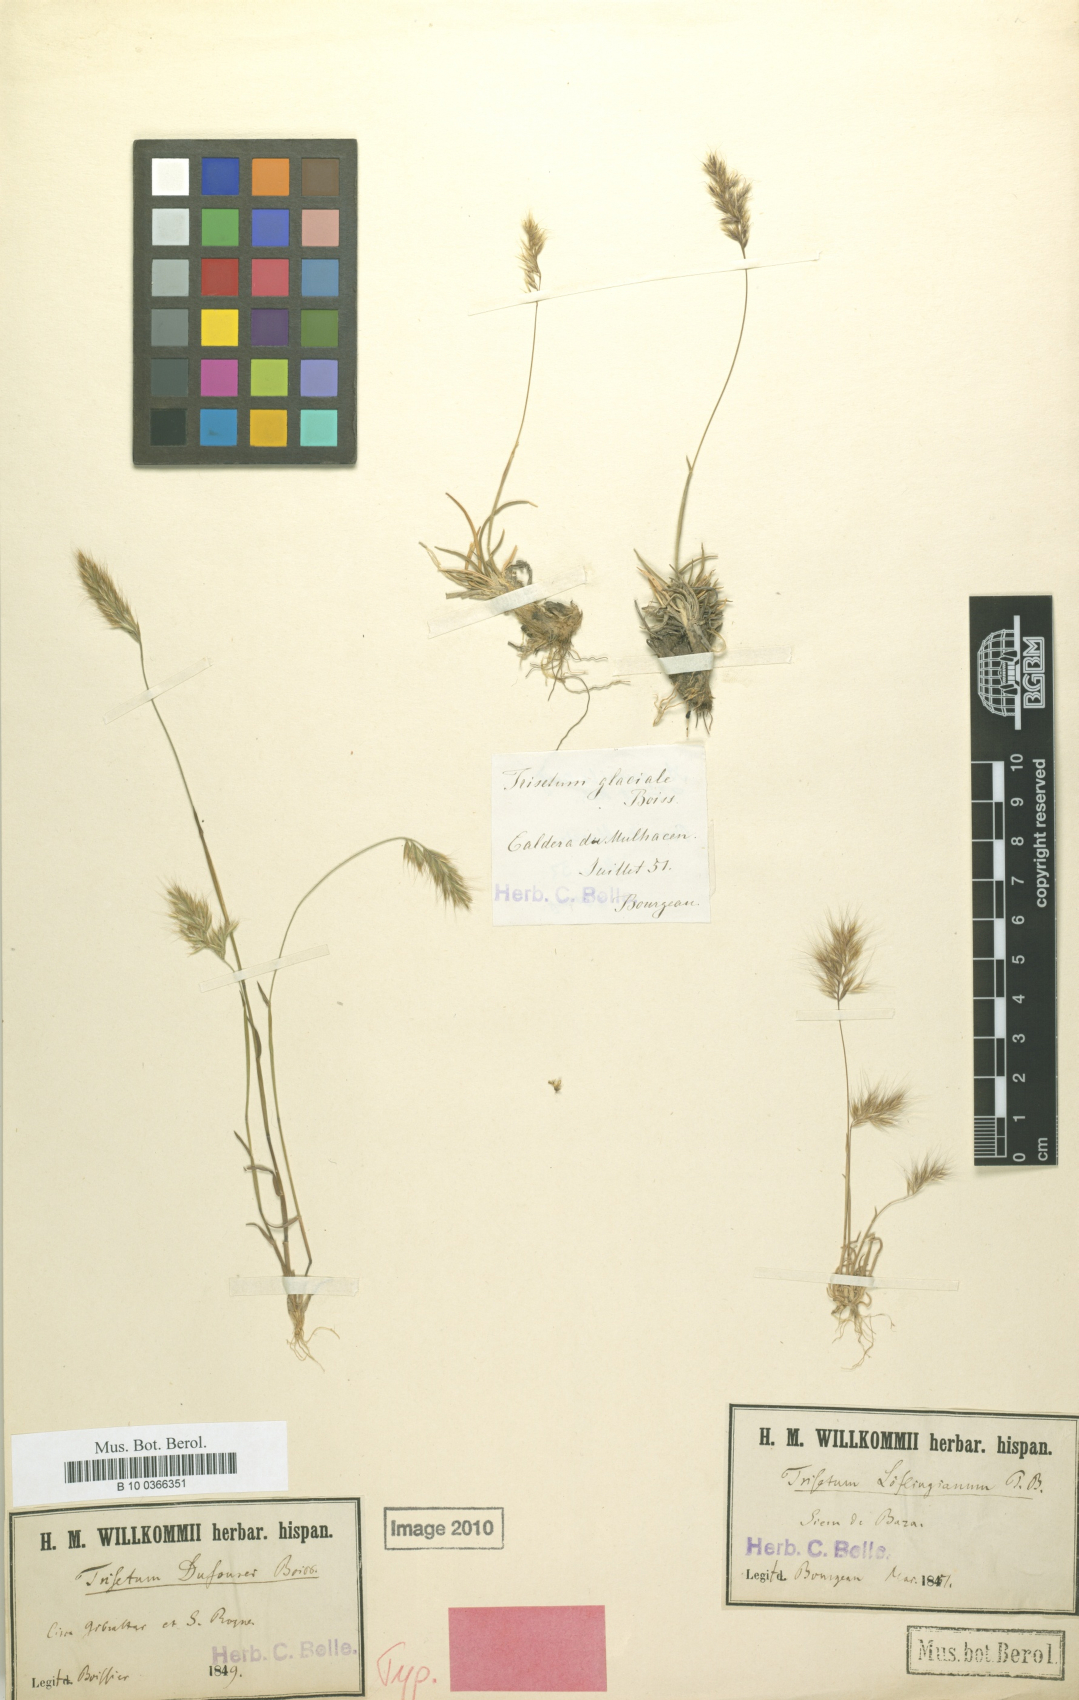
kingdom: Plantae
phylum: Tracheophyta
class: Liliopsida
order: Poales
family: Poaceae
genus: Trisetaria
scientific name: Trisetaria dufourei
